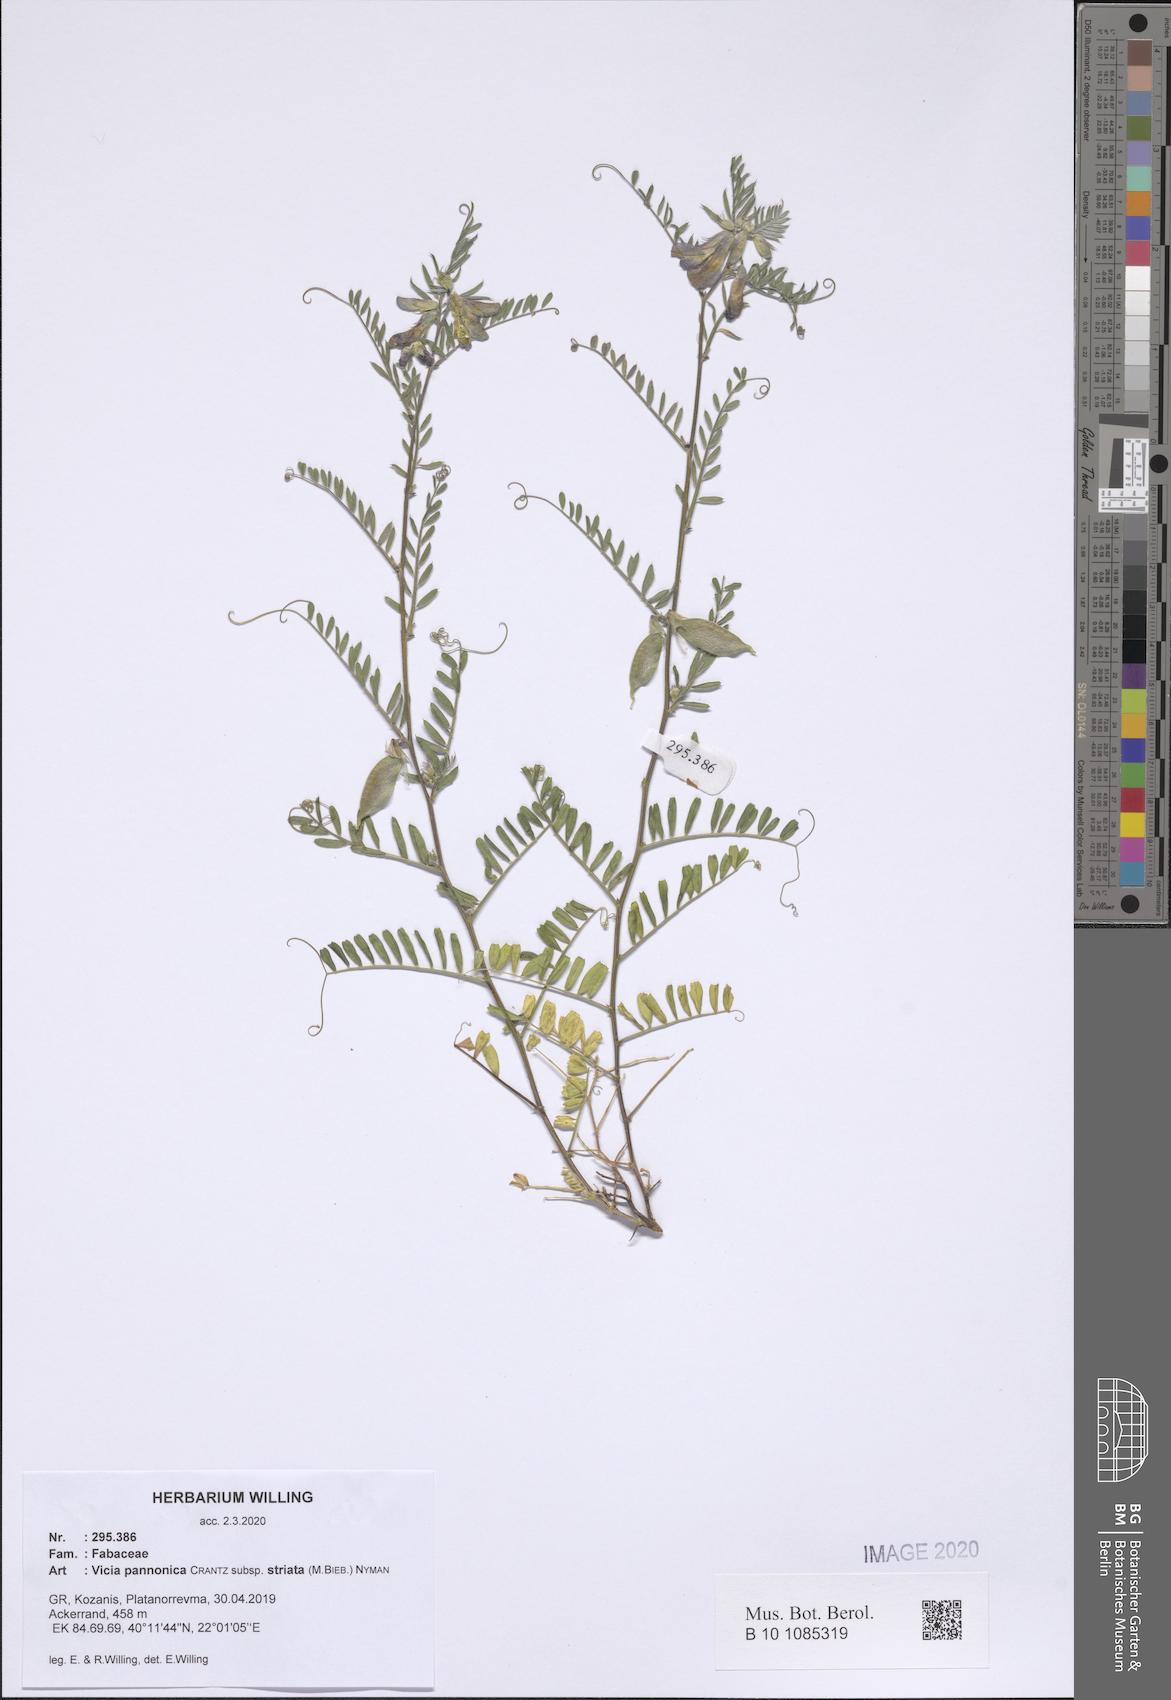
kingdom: Plantae
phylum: Tracheophyta
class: Magnoliopsida
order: Fabales
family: Fabaceae
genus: Vicia
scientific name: Vicia pannonica
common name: Hungarian vetch
